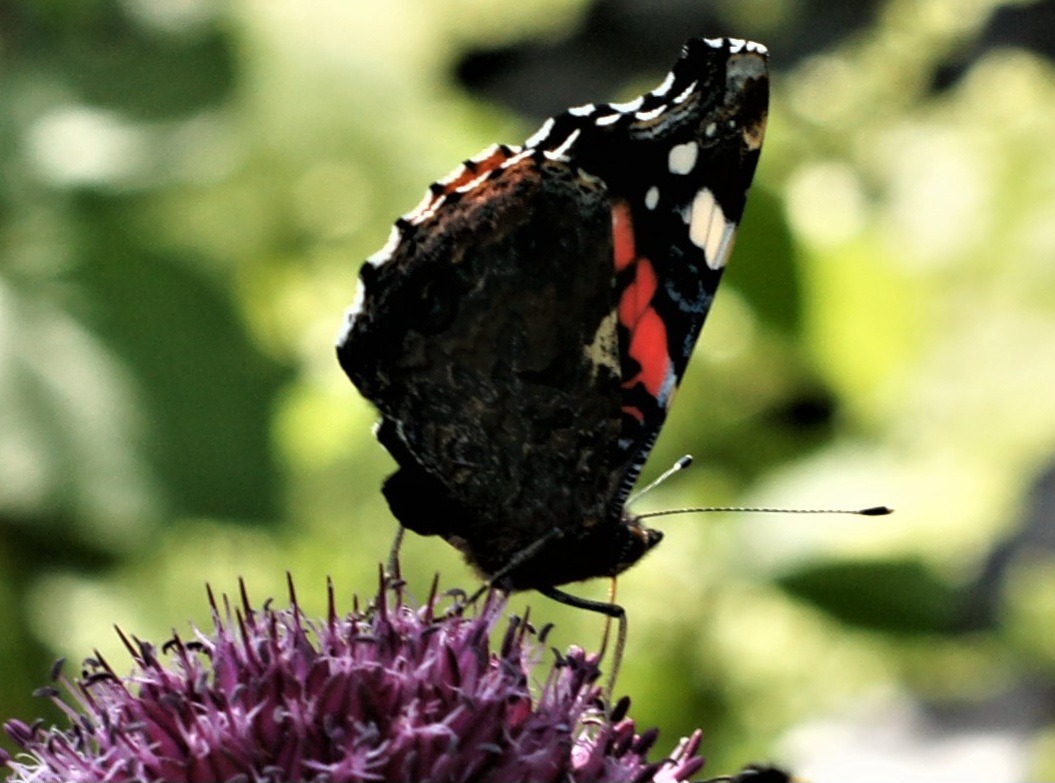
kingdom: Animalia
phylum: Arthropoda
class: Insecta
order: Lepidoptera
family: Nymphalidae
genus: Vanessa
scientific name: Vanessa atalanta
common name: Admiral
